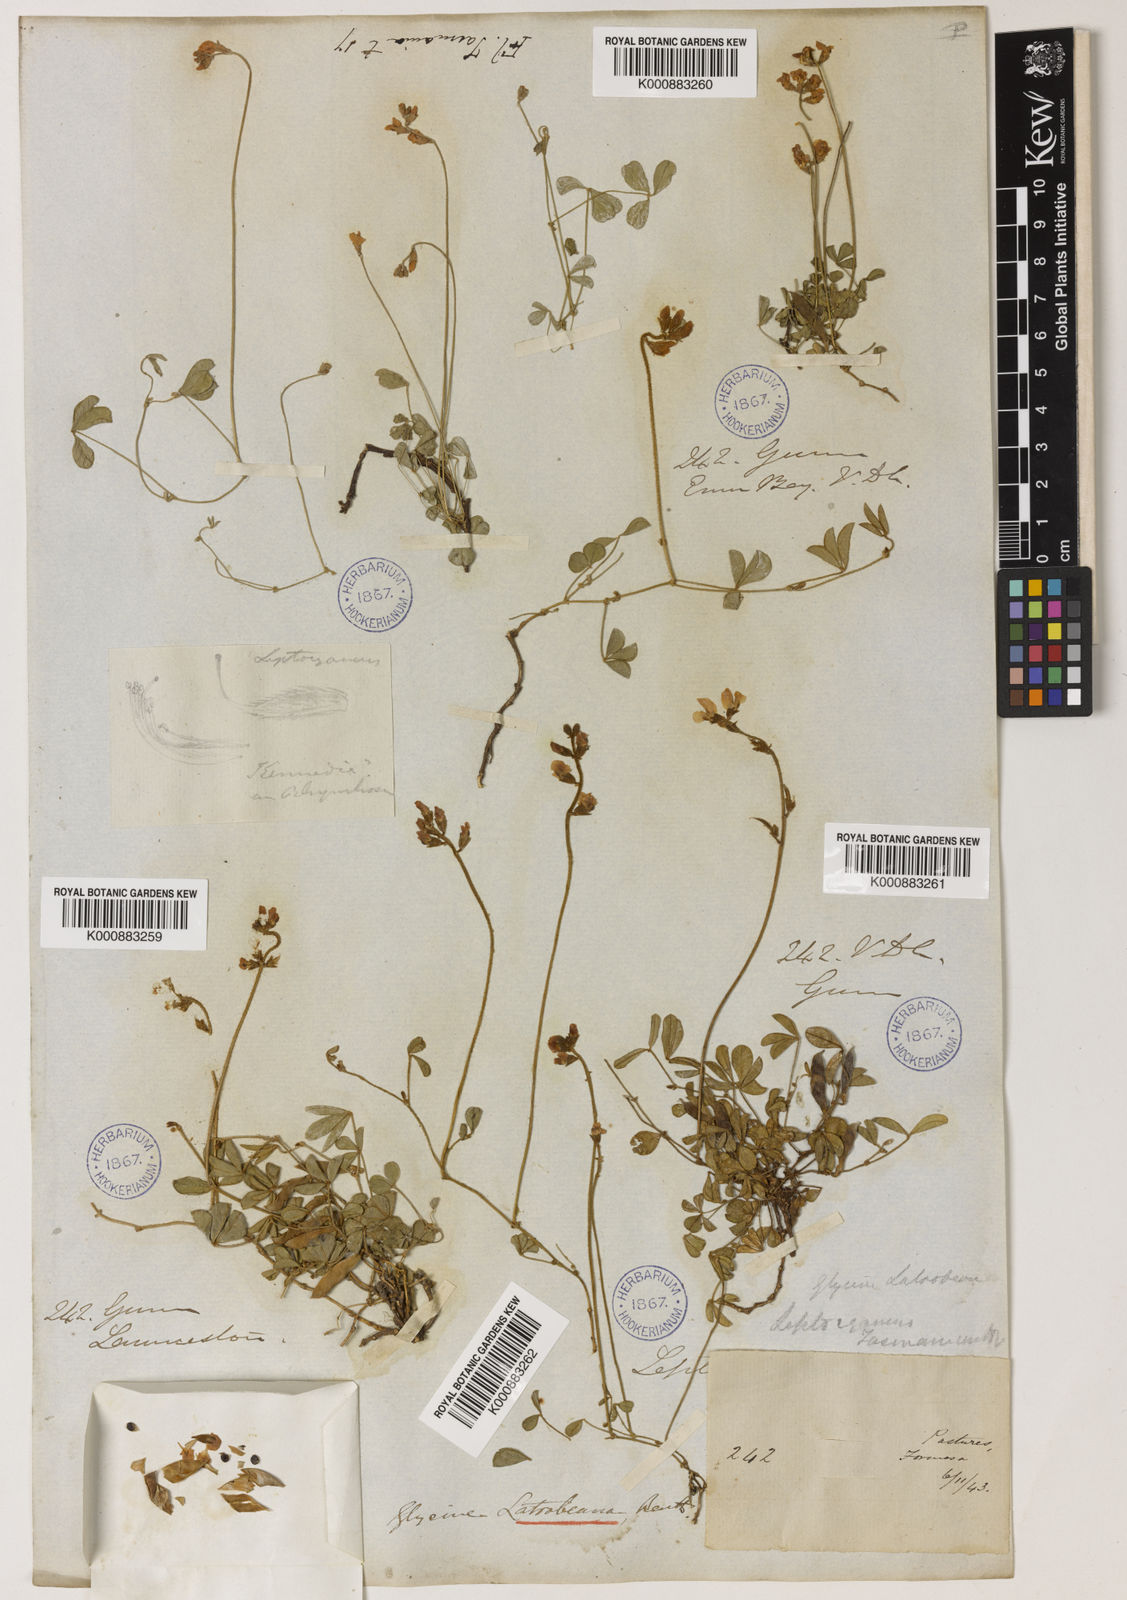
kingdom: Plantae
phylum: Tracheophyta
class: Magnoliopsida
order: Fabales
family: Fabaceae
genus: Glycine
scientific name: Glycine latrobeana
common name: Clover glycine
